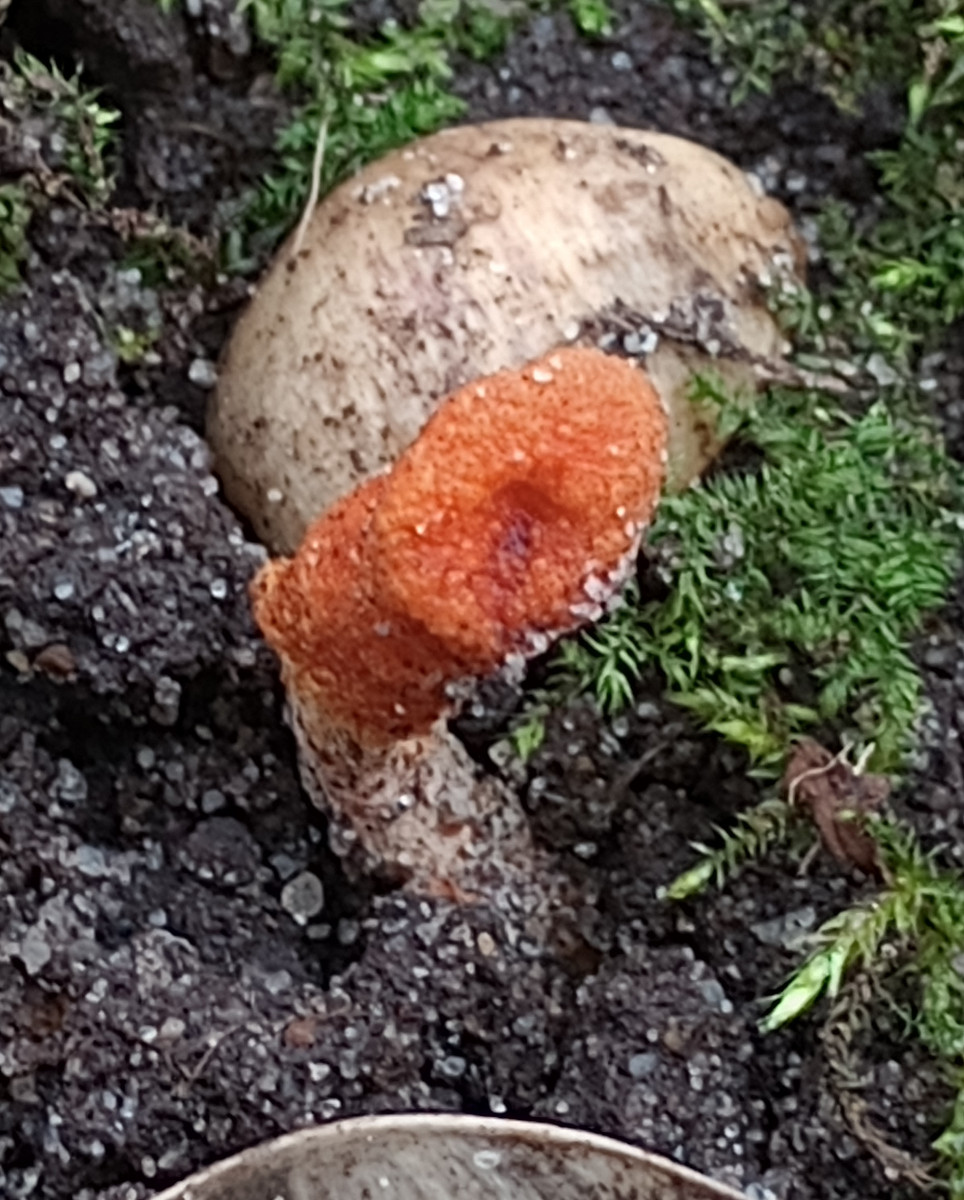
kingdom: Fungi
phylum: Ascomycota
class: Sordariomycetes
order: Hypocreales
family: Cordycipitaceae
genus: Cordyceps
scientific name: Cordyceps militaris
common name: puppe-snyltekølle
